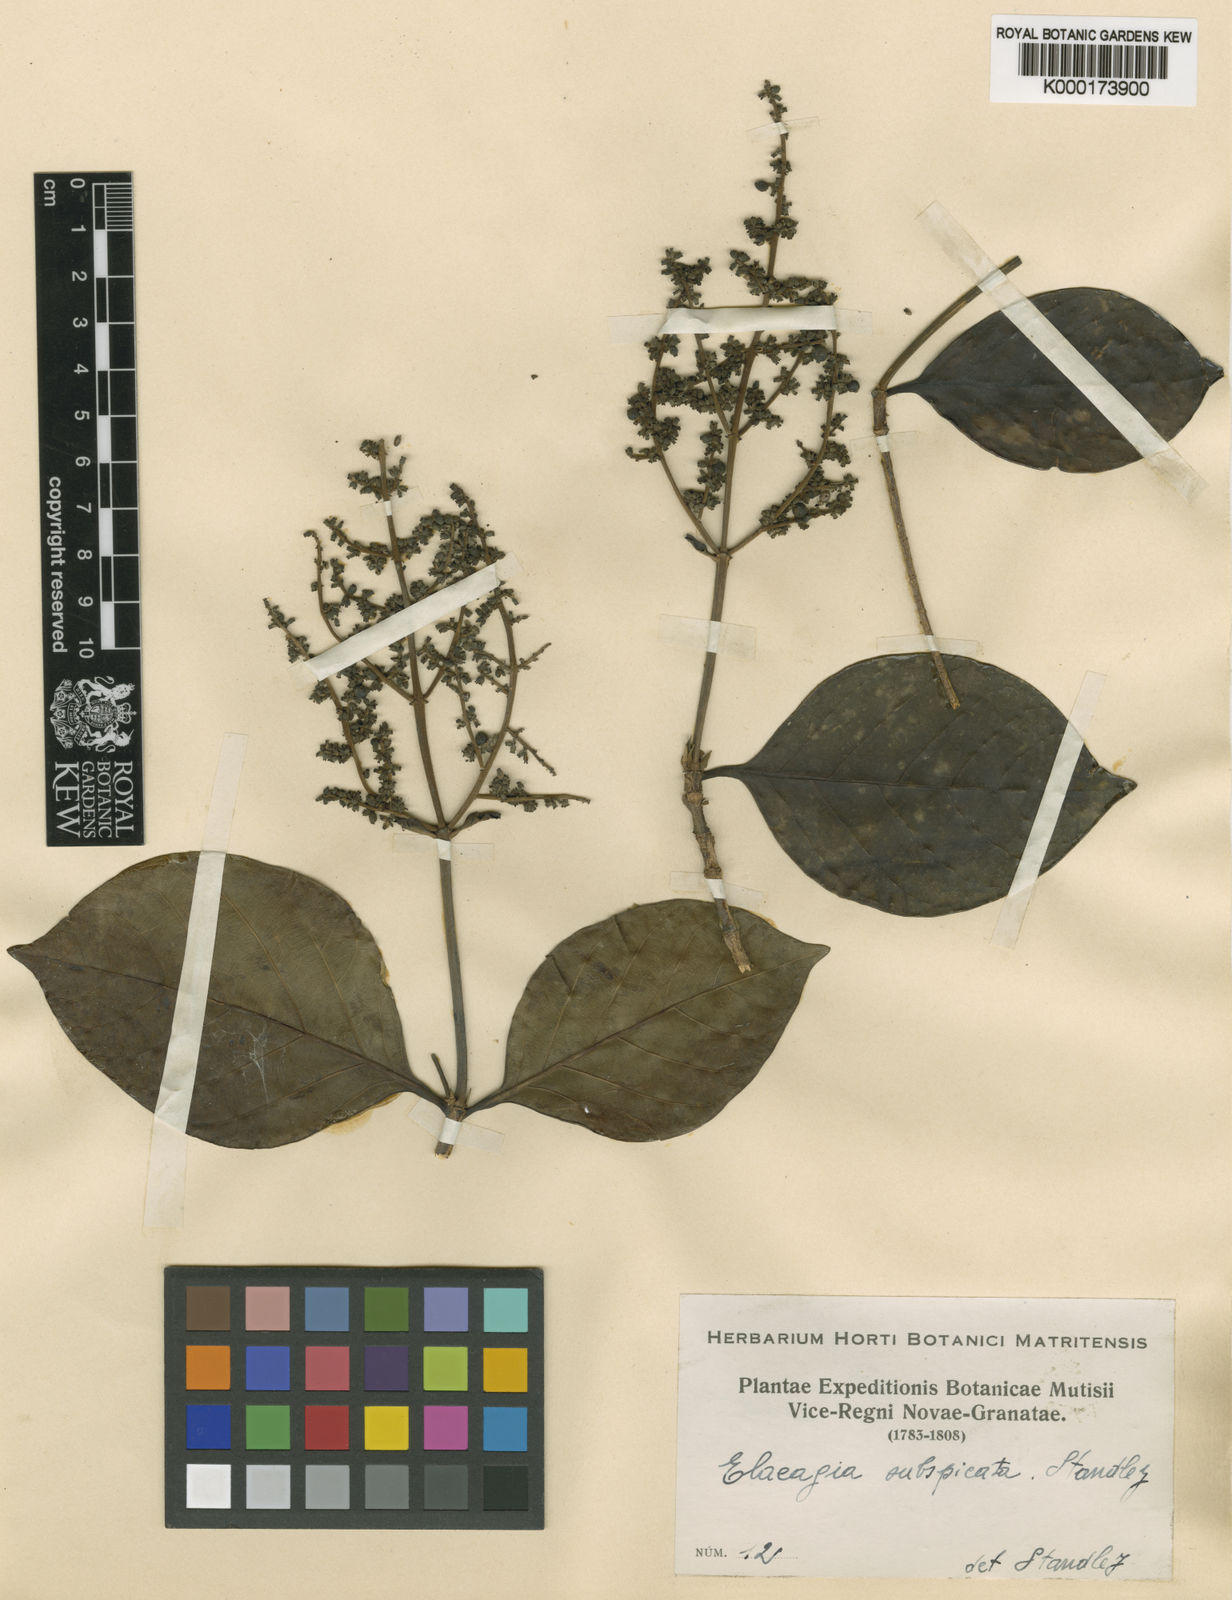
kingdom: Plantae
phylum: Tracheophyta
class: Magnoliopsida
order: Gentianales
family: Rubiaceae
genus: Warszewiczia
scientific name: Warszewiczia longistaminea
